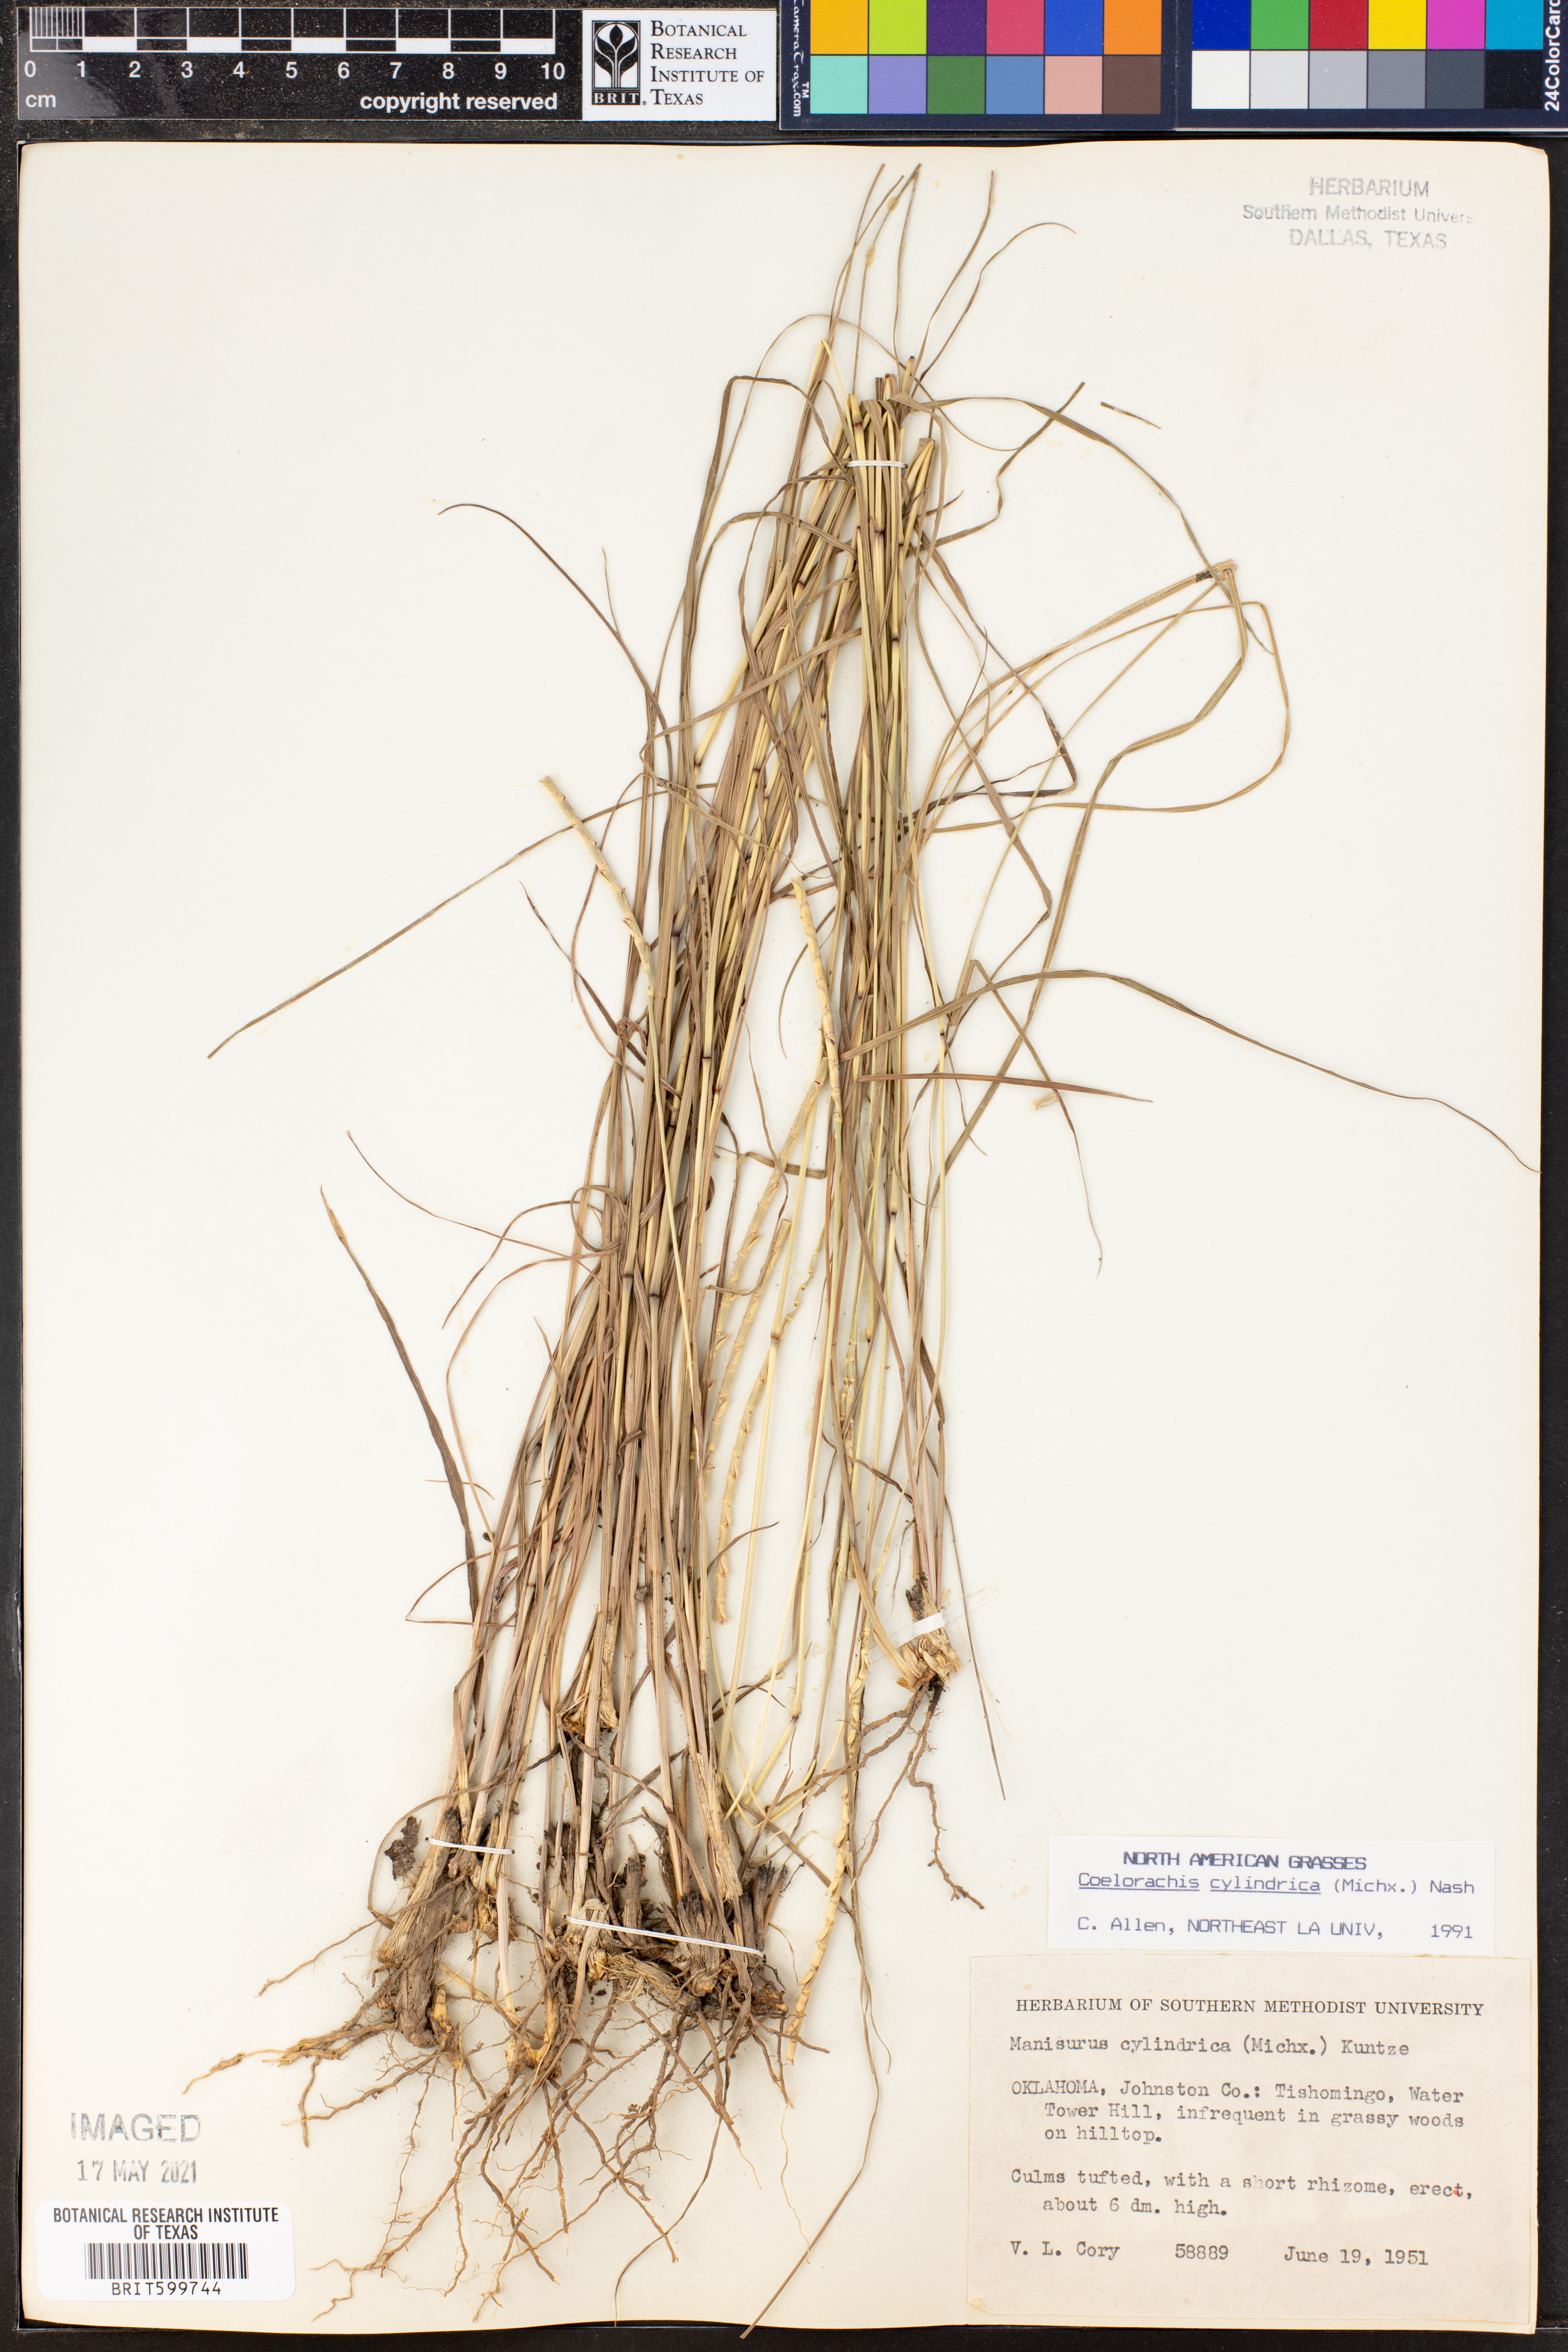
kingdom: Plantae
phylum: Tracheophyta
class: Liliopsida
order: Poales
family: Poaceae
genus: Rottboellia
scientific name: Rottboellia campestris
